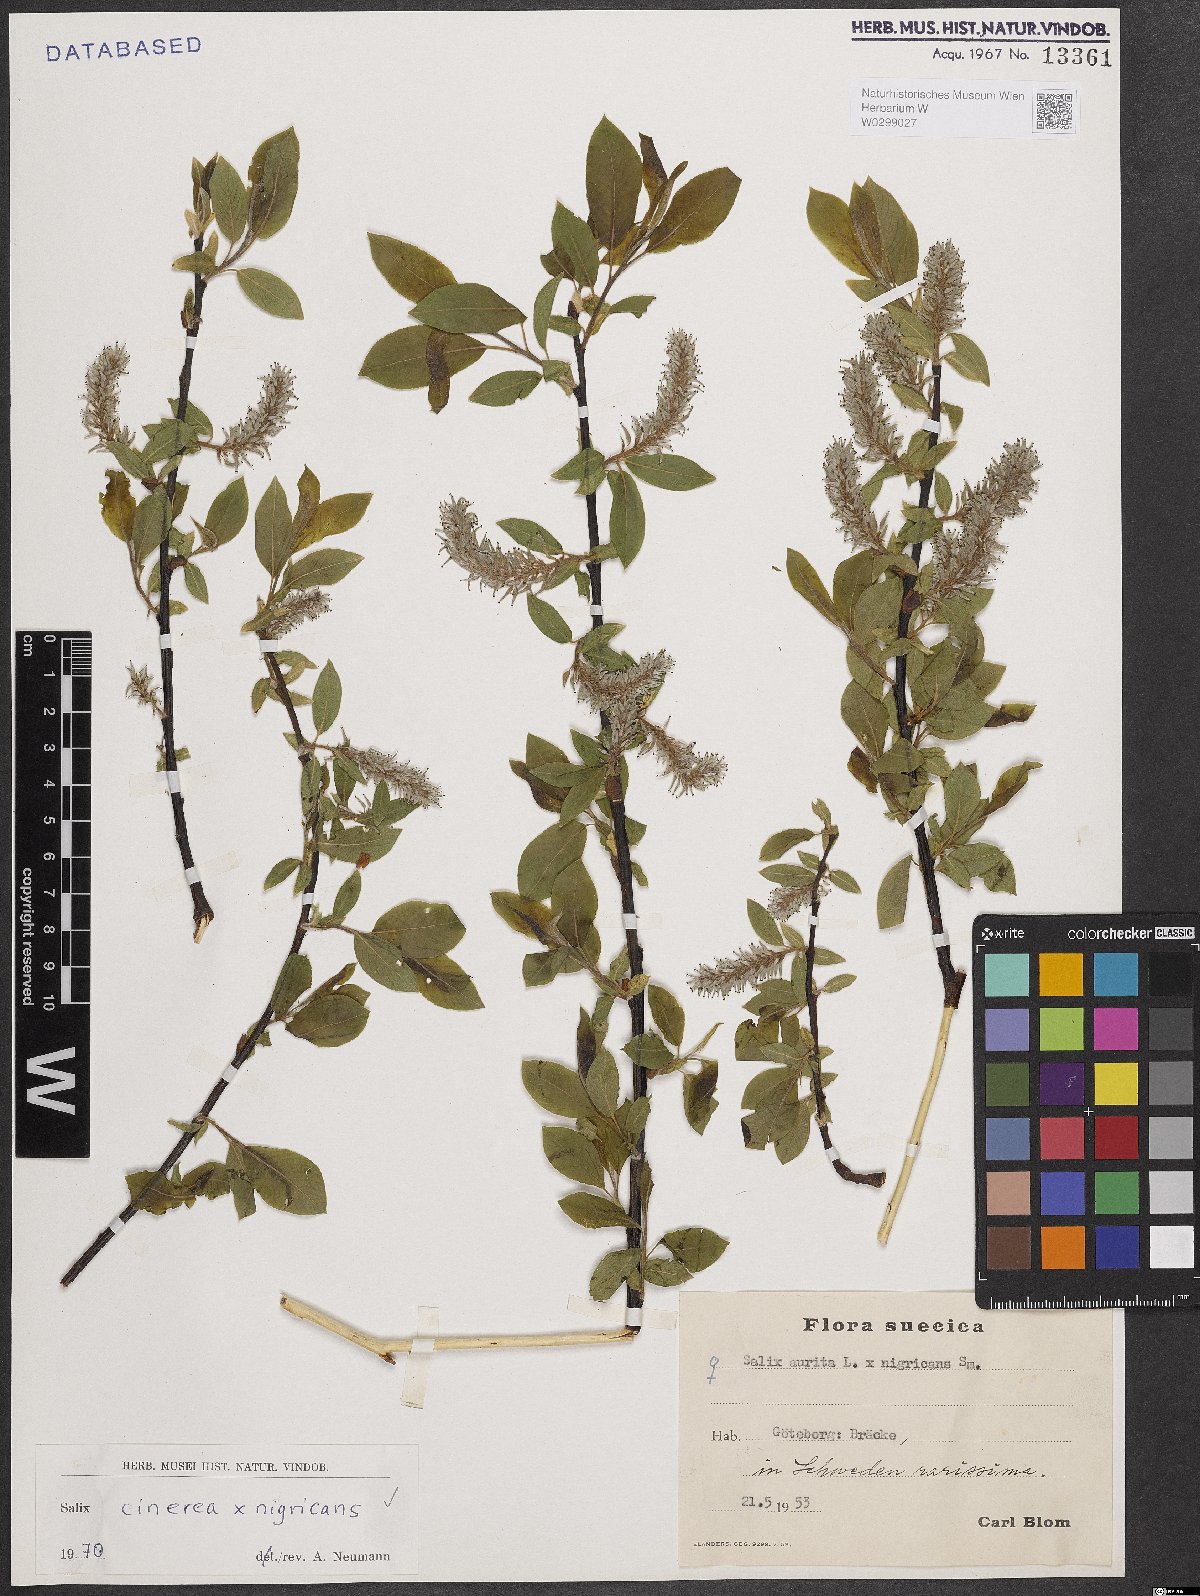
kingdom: Plantae
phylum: Tracheophyta
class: Magnoliopsida
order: Malpighiales
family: Salicaceae
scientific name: Salicaceae
